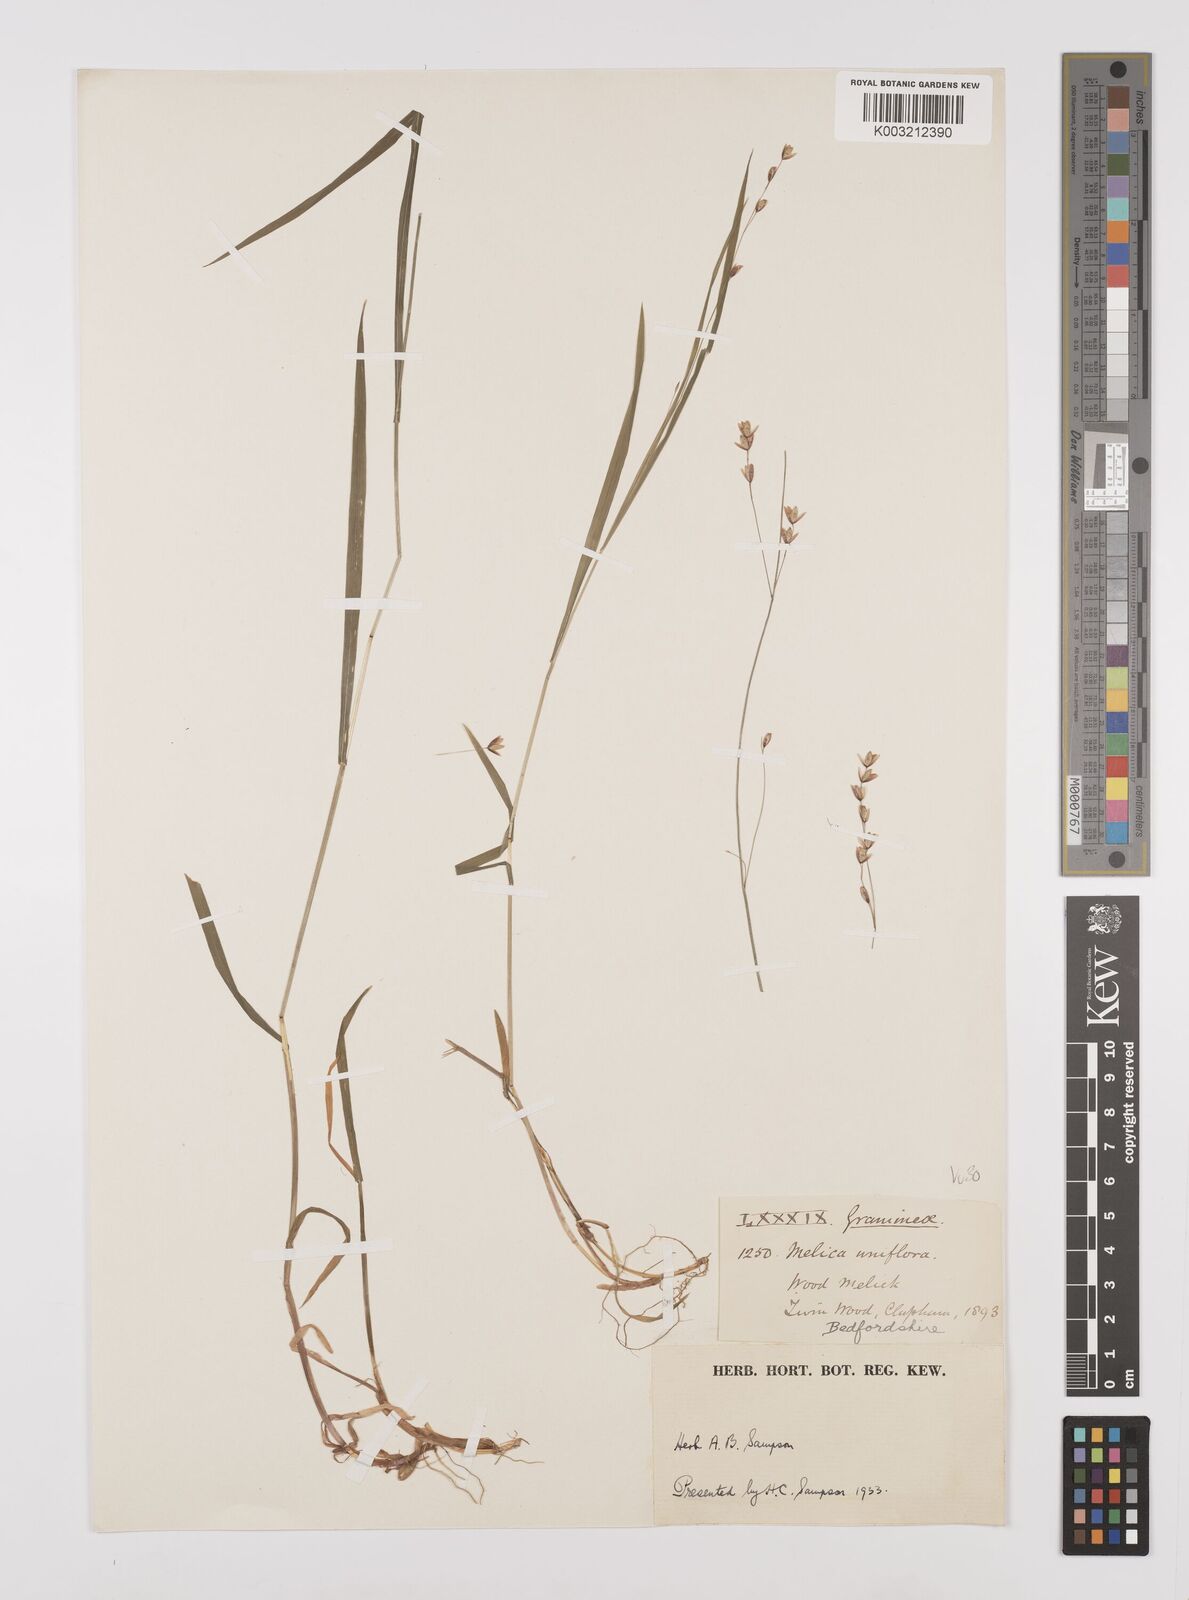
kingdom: Plantae
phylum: Tracheophyta
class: Liliopsida
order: Poales
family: Poaceae
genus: Melica
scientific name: Melica uniflora
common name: Wood melick
